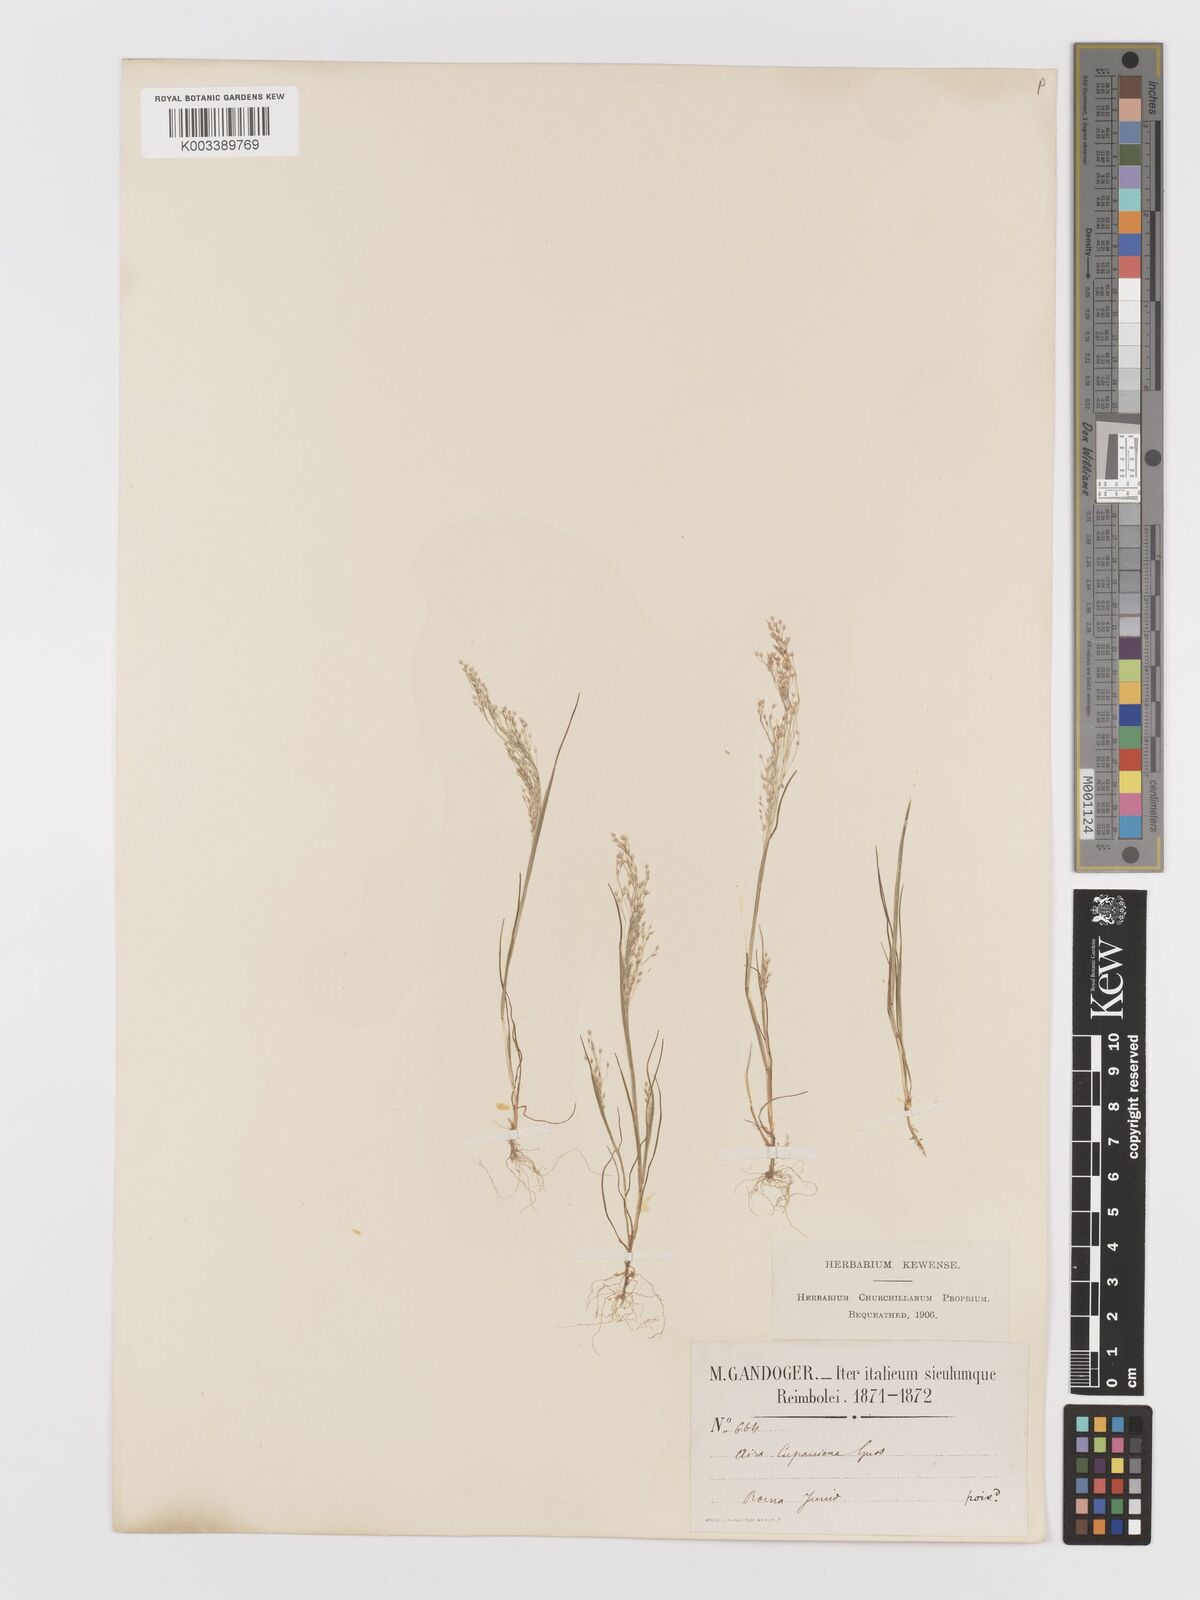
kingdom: Plantae
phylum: Tracheophyta
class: Liliopsida
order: Poales
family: Poaceae
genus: Aira
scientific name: Aira cupaniana
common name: Silver hairgrass
